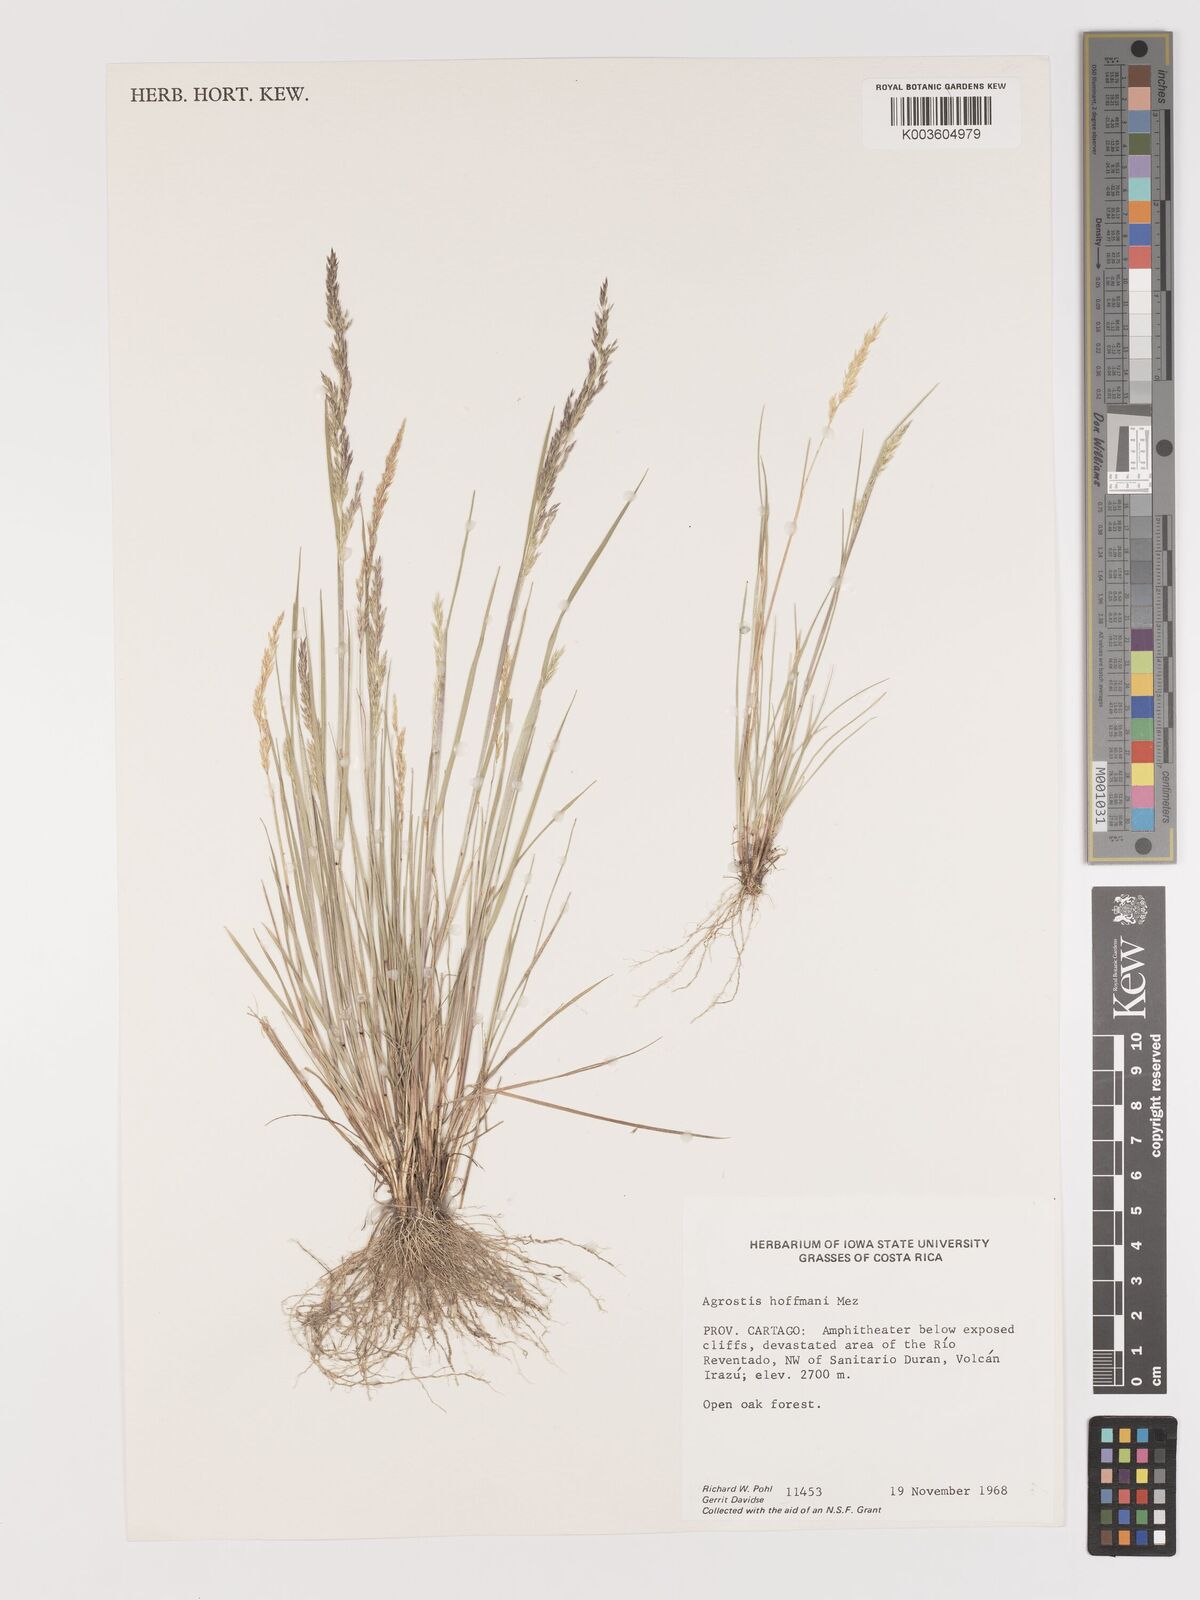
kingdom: Plantae
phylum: Tracheophyta
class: Liliopsida
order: Poales
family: Poaceae
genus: Agrostis
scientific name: Agrostis tolucensis
